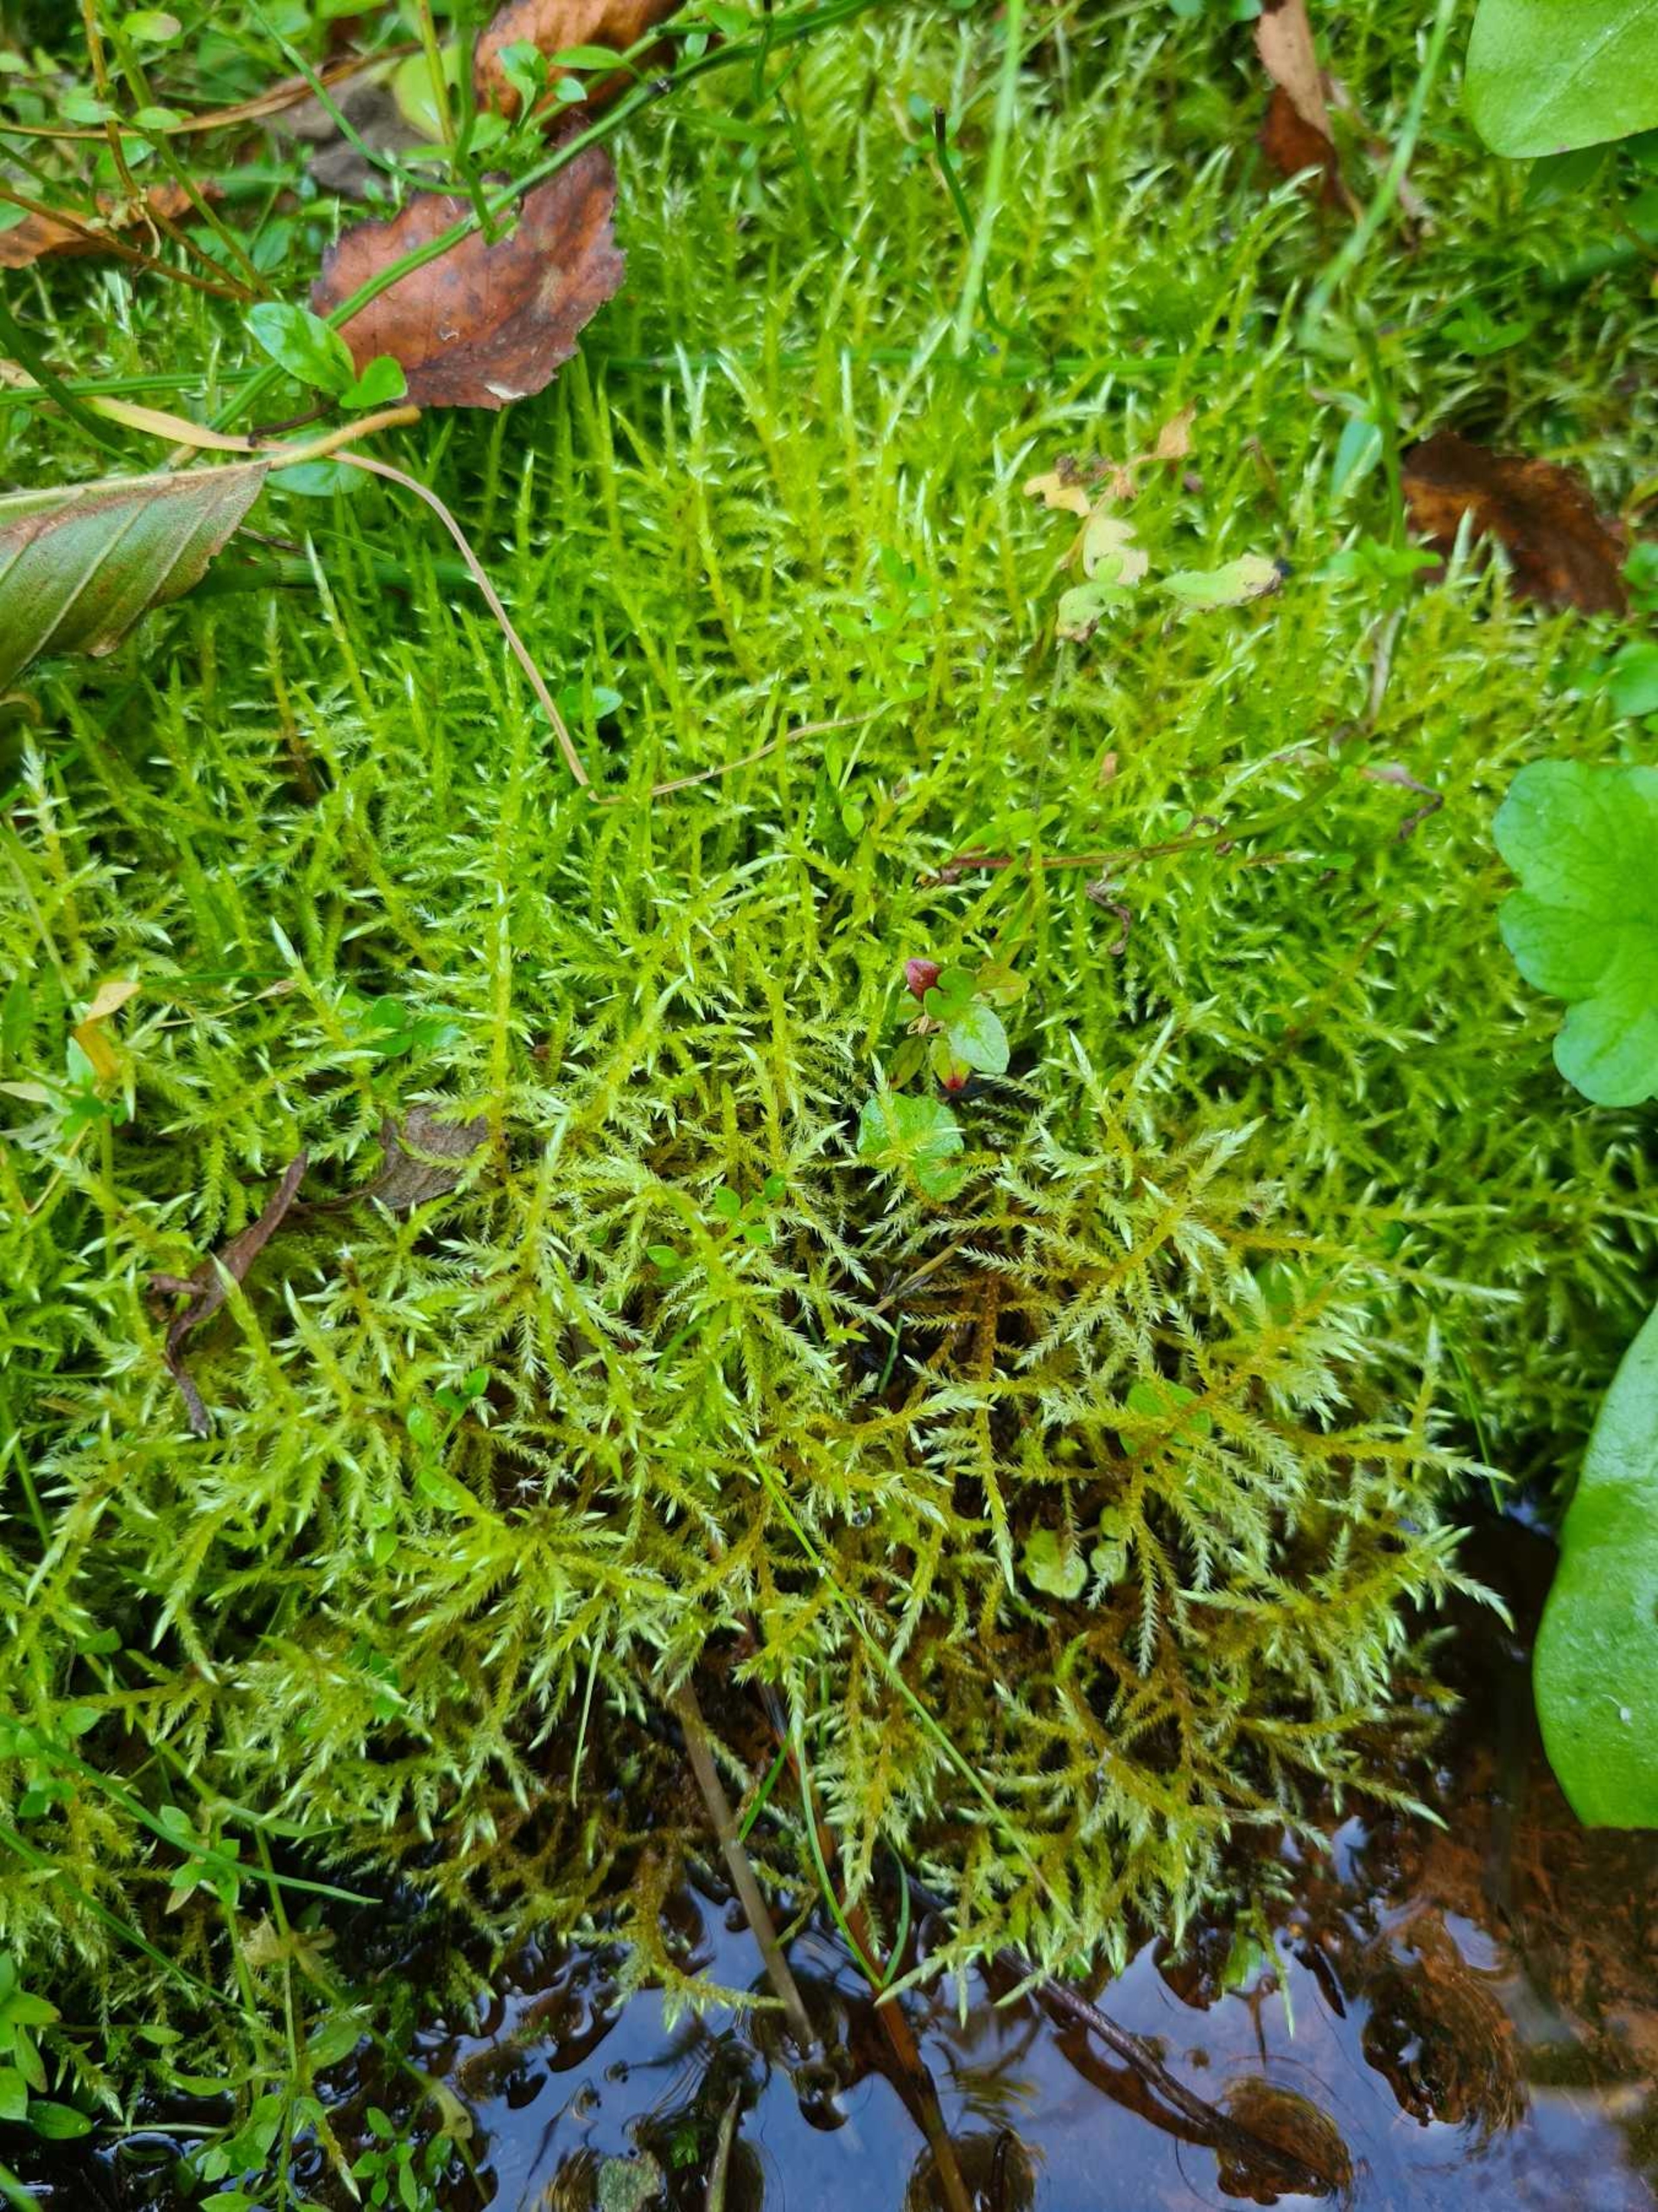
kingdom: Plantae
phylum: Bryophyta
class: Bryopsida
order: Hypnales
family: Brachytheciaceae
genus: Brachythecium
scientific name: Brachythecium rivulare
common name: Væld-kortkapsel
